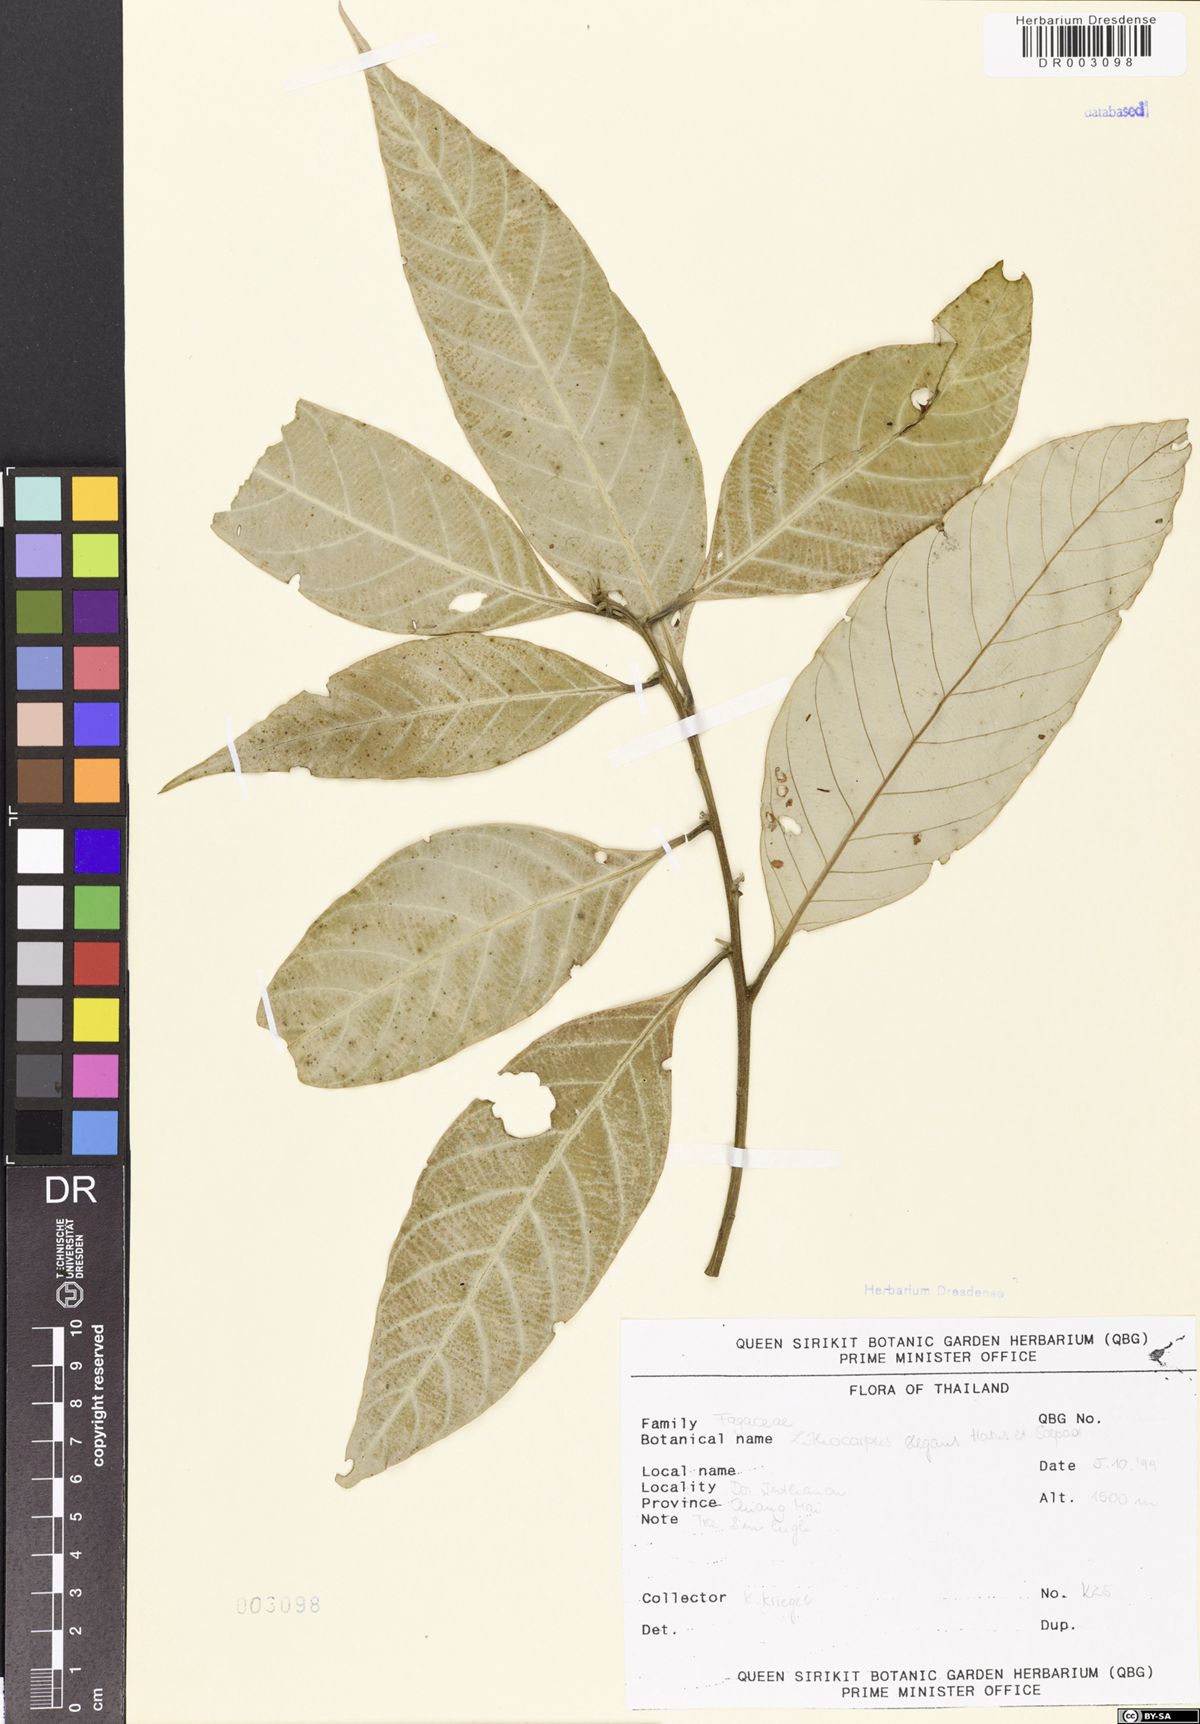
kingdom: Plantae
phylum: Tracheophyta
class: Magnoliopsida
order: Fagales
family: Fagaceae
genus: Lithocarpus
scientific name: Lithocarpus elegans
